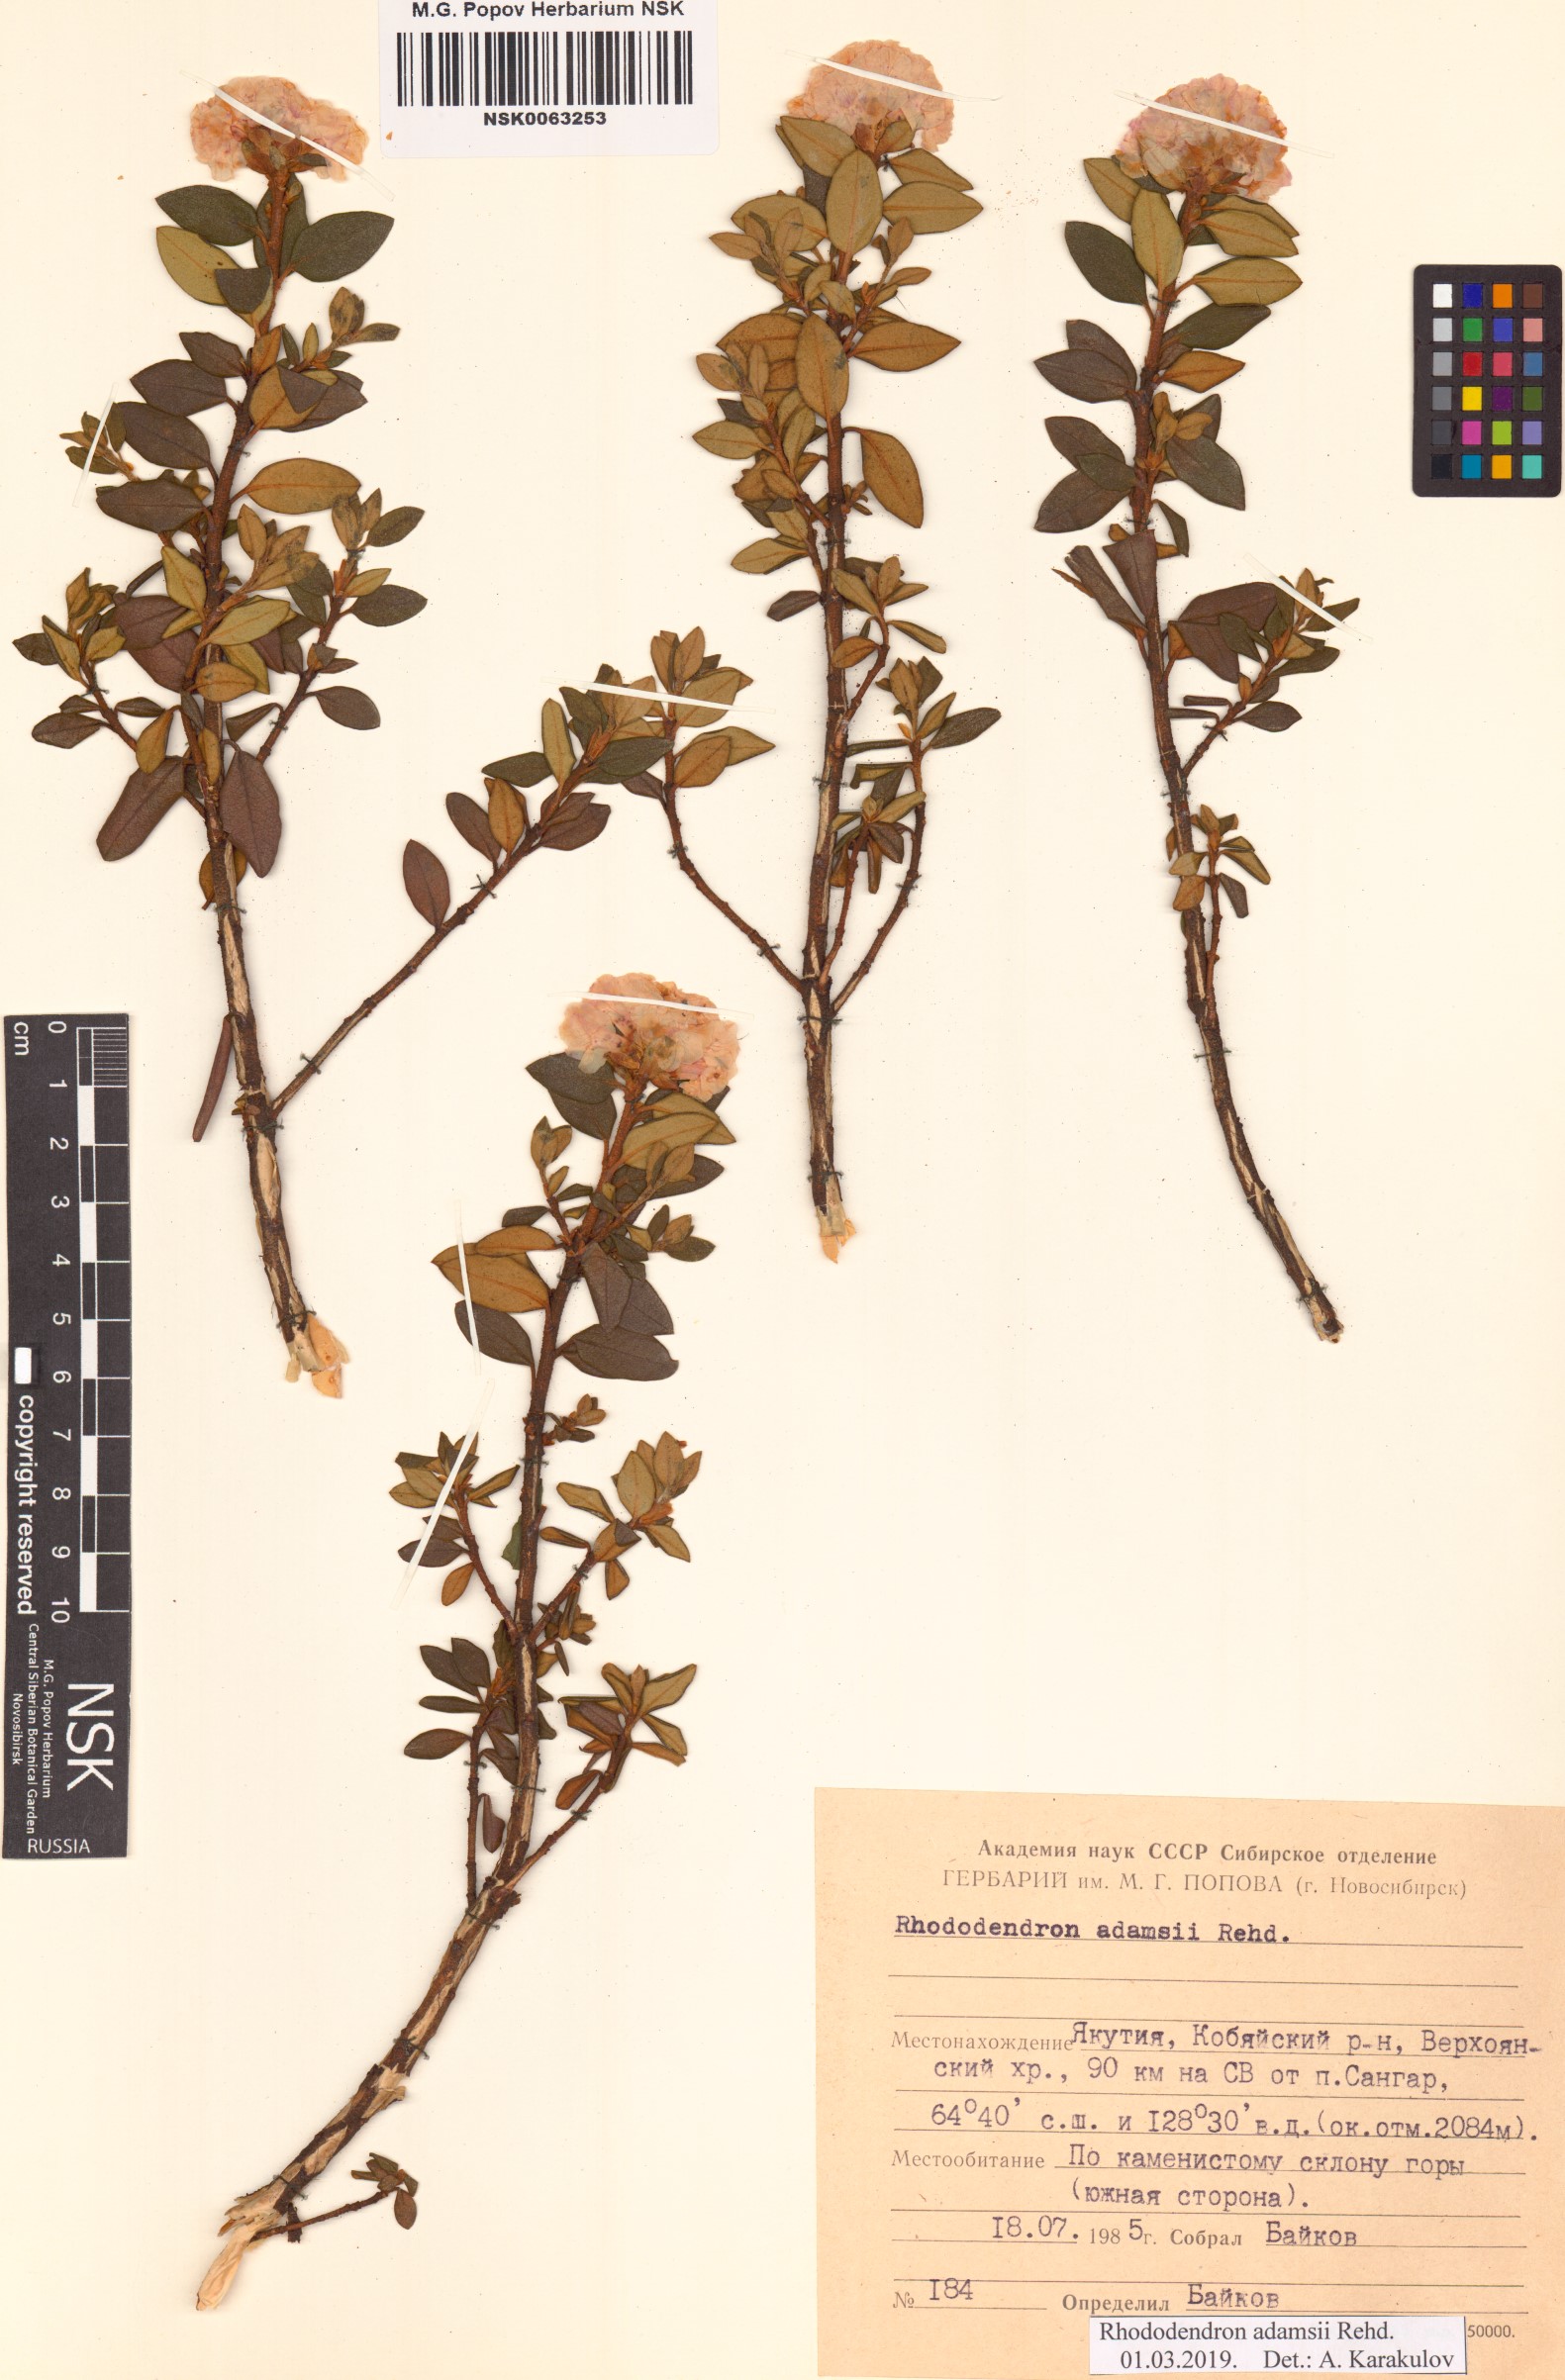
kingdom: Plantae
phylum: Tracheophyta
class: Magnoliopsida
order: Ericales
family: Ericaceae
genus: Rhododendron
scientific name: Rhododendron adamsii
